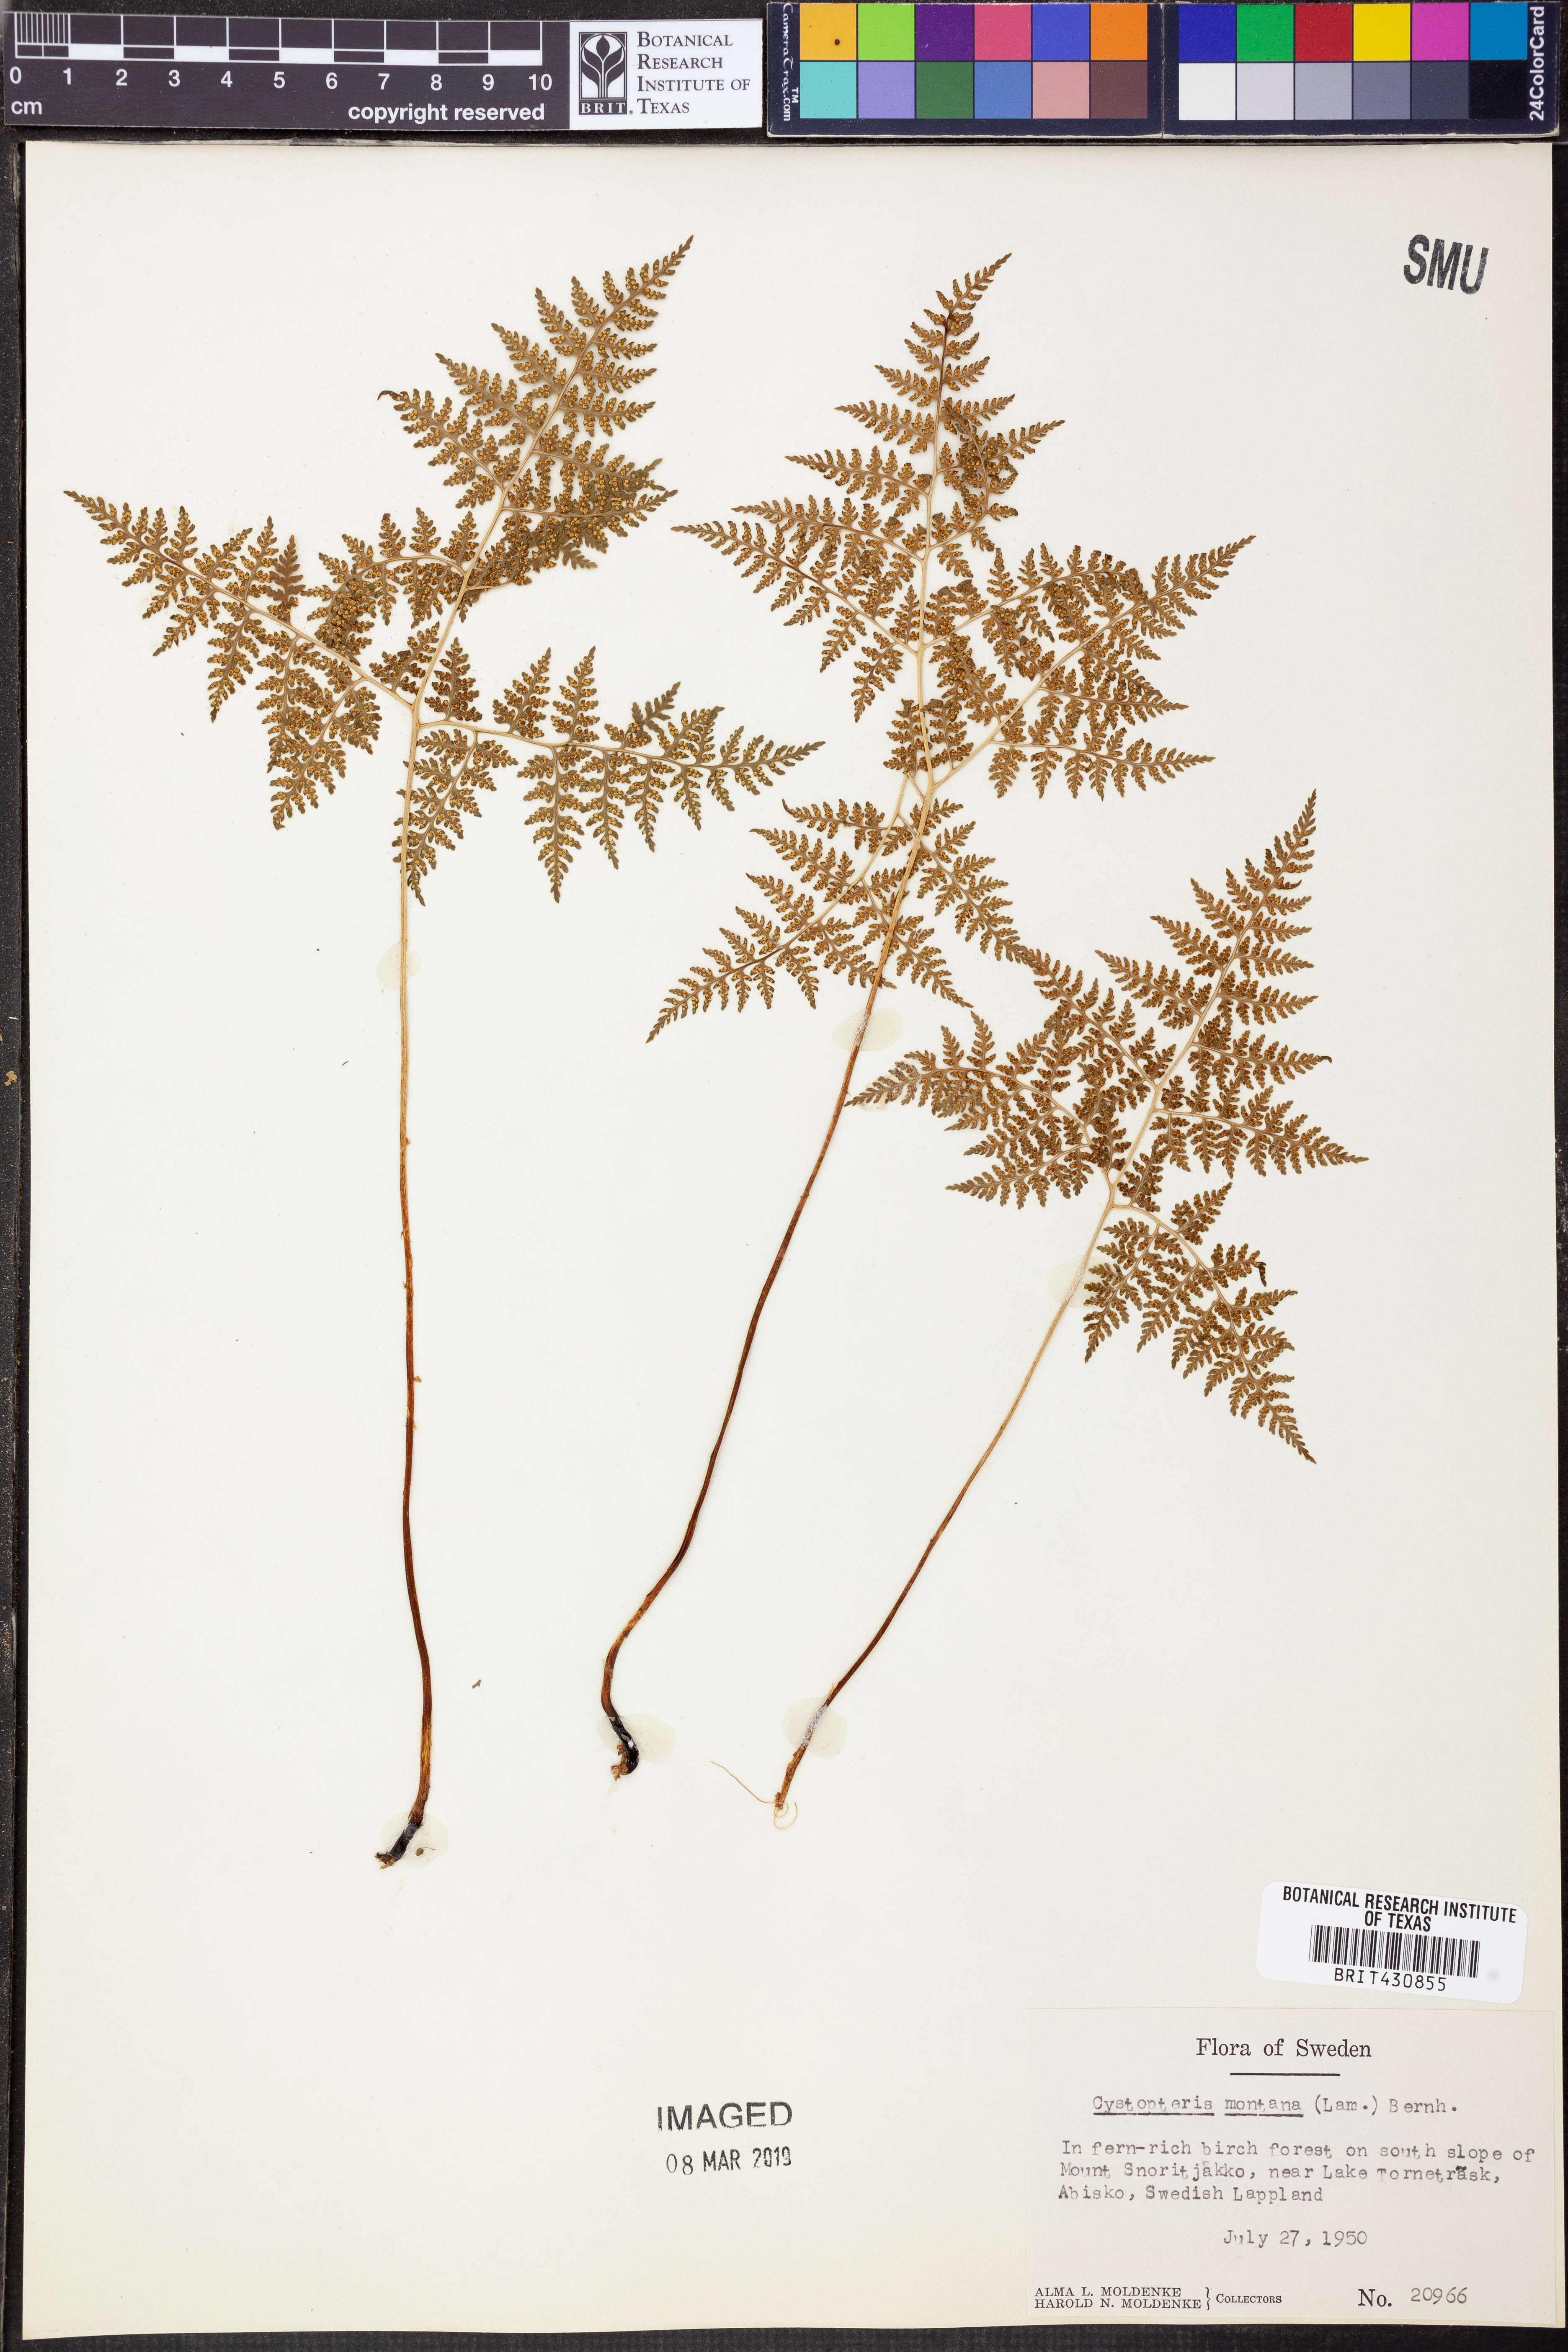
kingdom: Plantae
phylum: Tracheophyta
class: Polypodiopsida
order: Polypodiales
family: Cystopteridaceae
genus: Cystopteris
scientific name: Cystopteris montana
